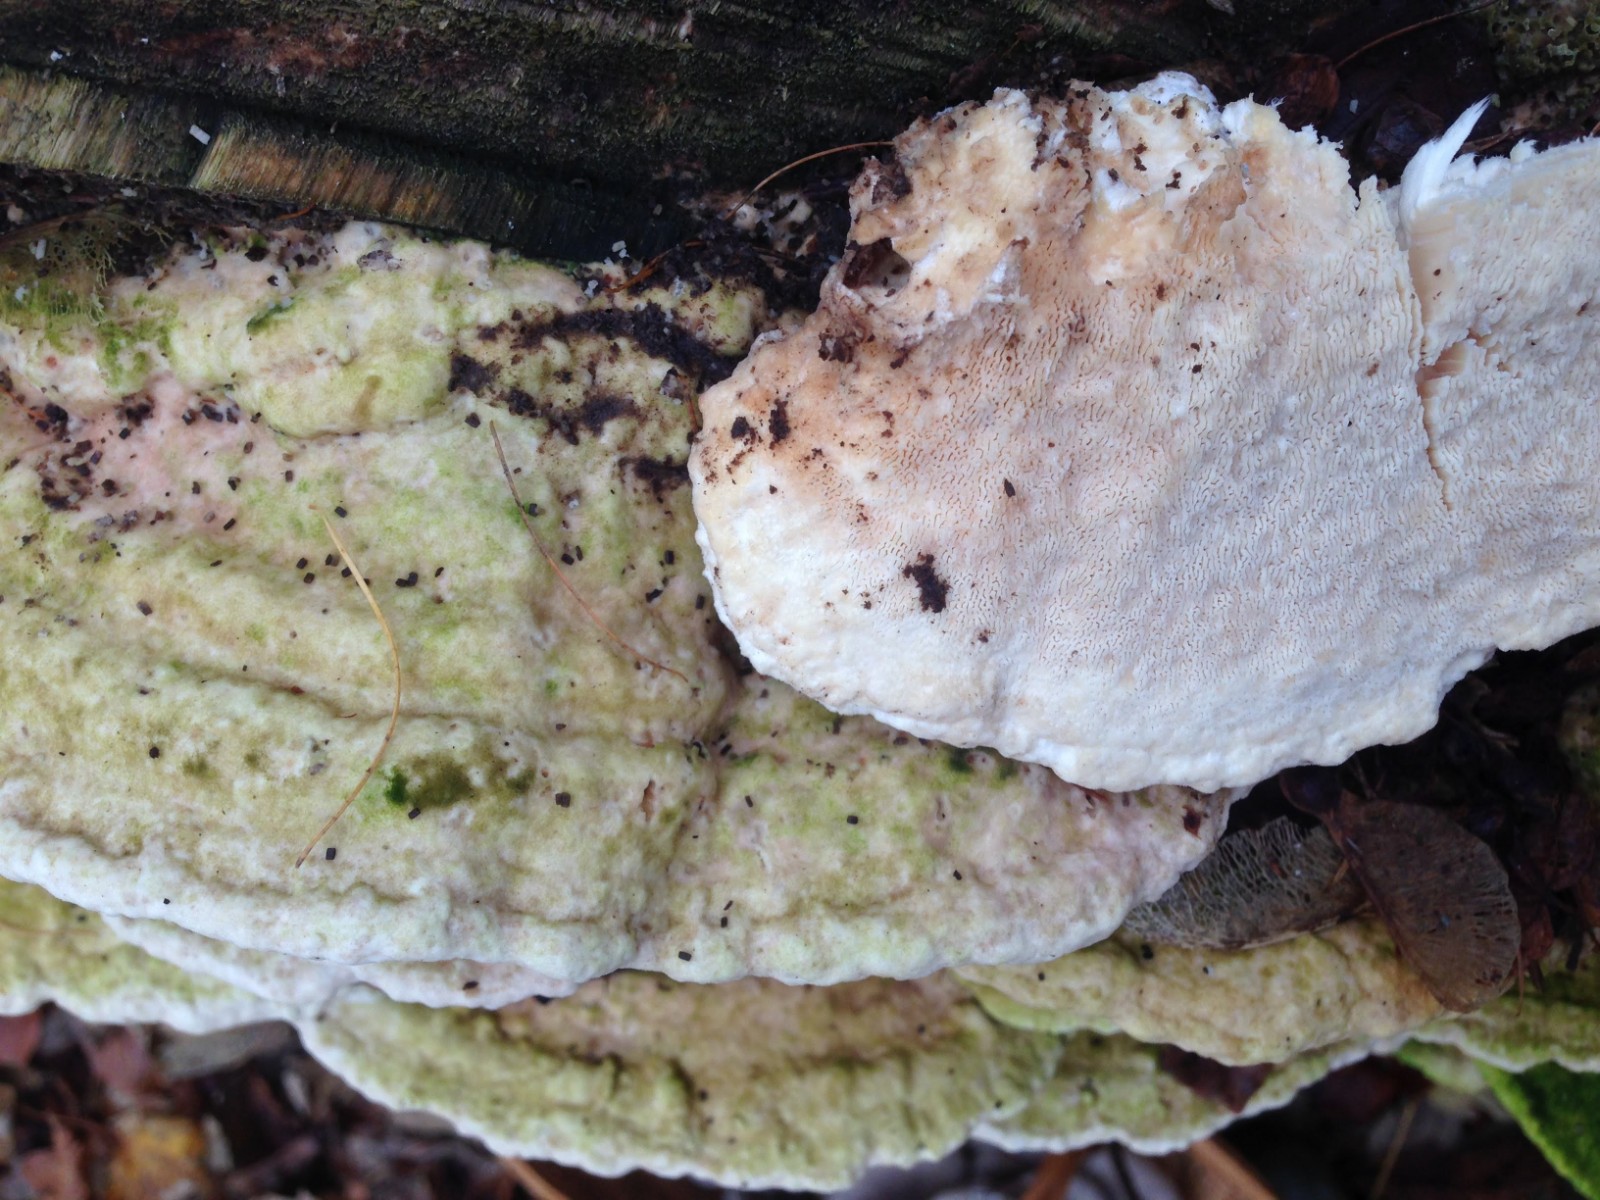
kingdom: Fungi
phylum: Basidiomycota
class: Agaricomycetes
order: Polyporales
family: Polyporaceae
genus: Trametes
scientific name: Trametes gibbosa
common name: puklet læderporesvamp
